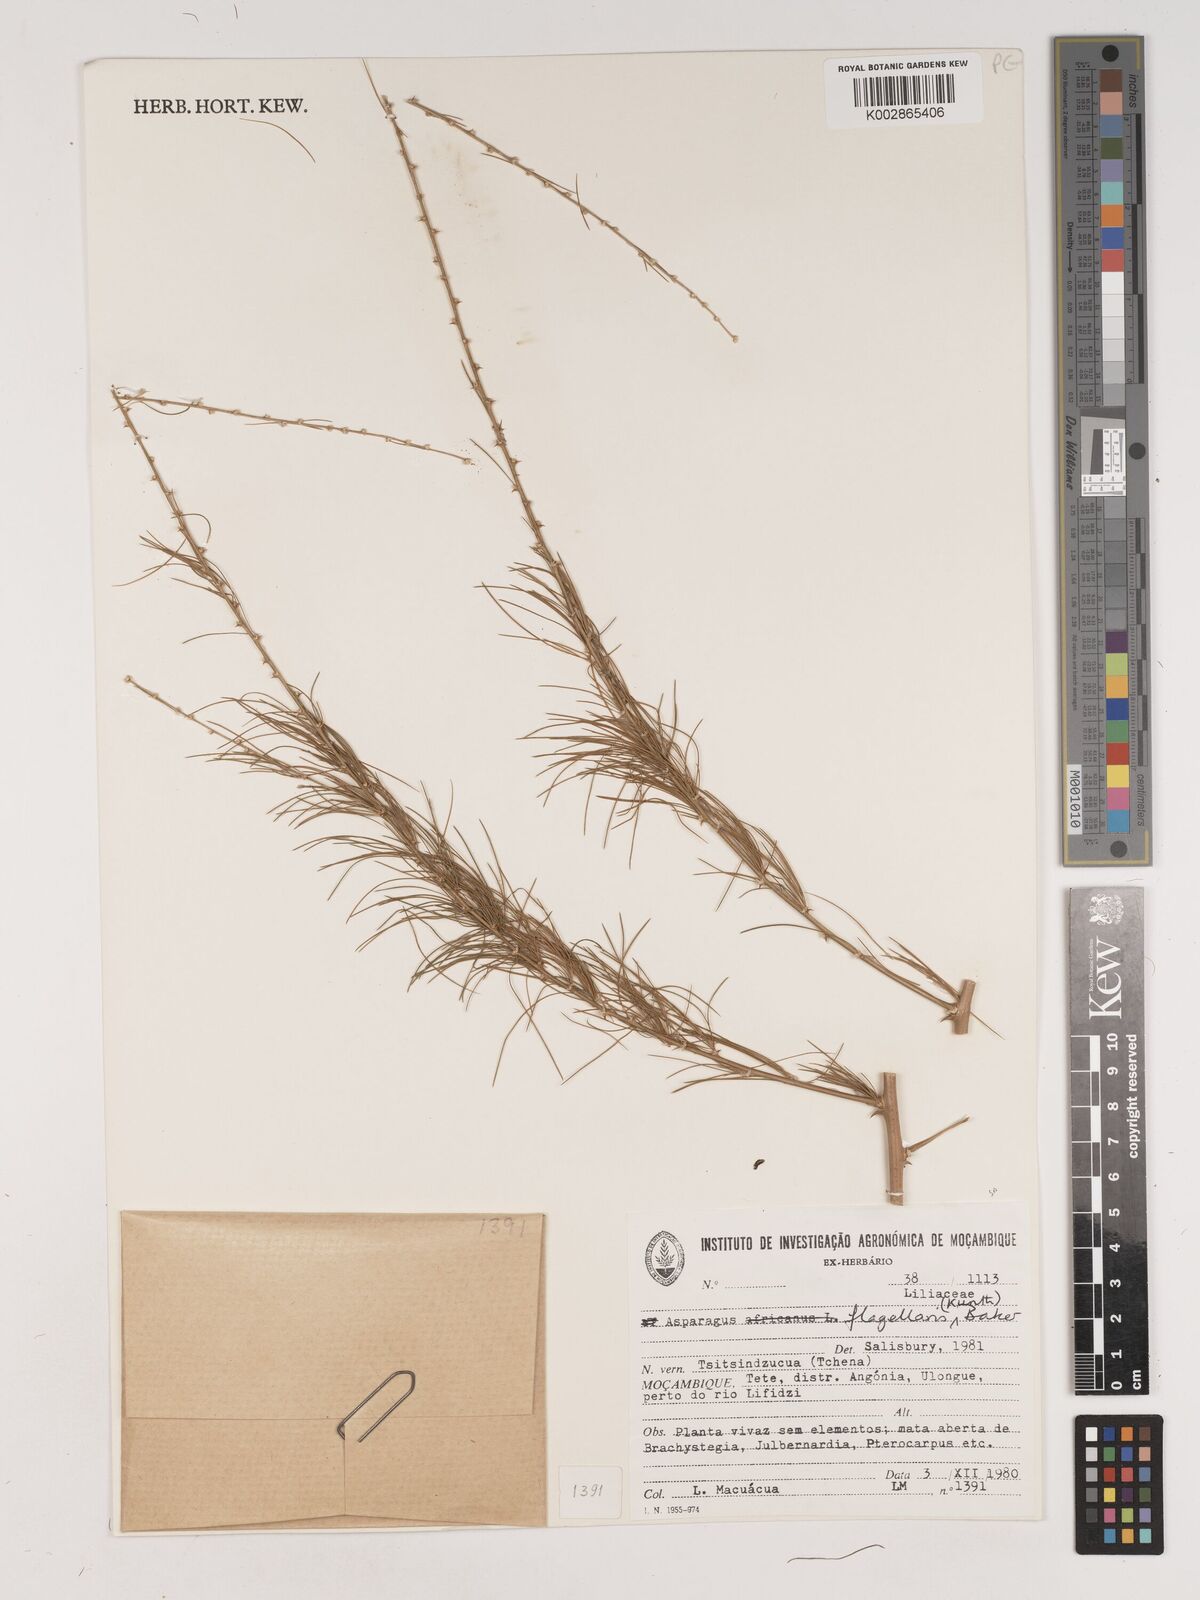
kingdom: Plantae
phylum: Tracheophyta
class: Liliopsida
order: Asparagales
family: Asparagaceae
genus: Asparagus
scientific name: Asparagus flagellaris
